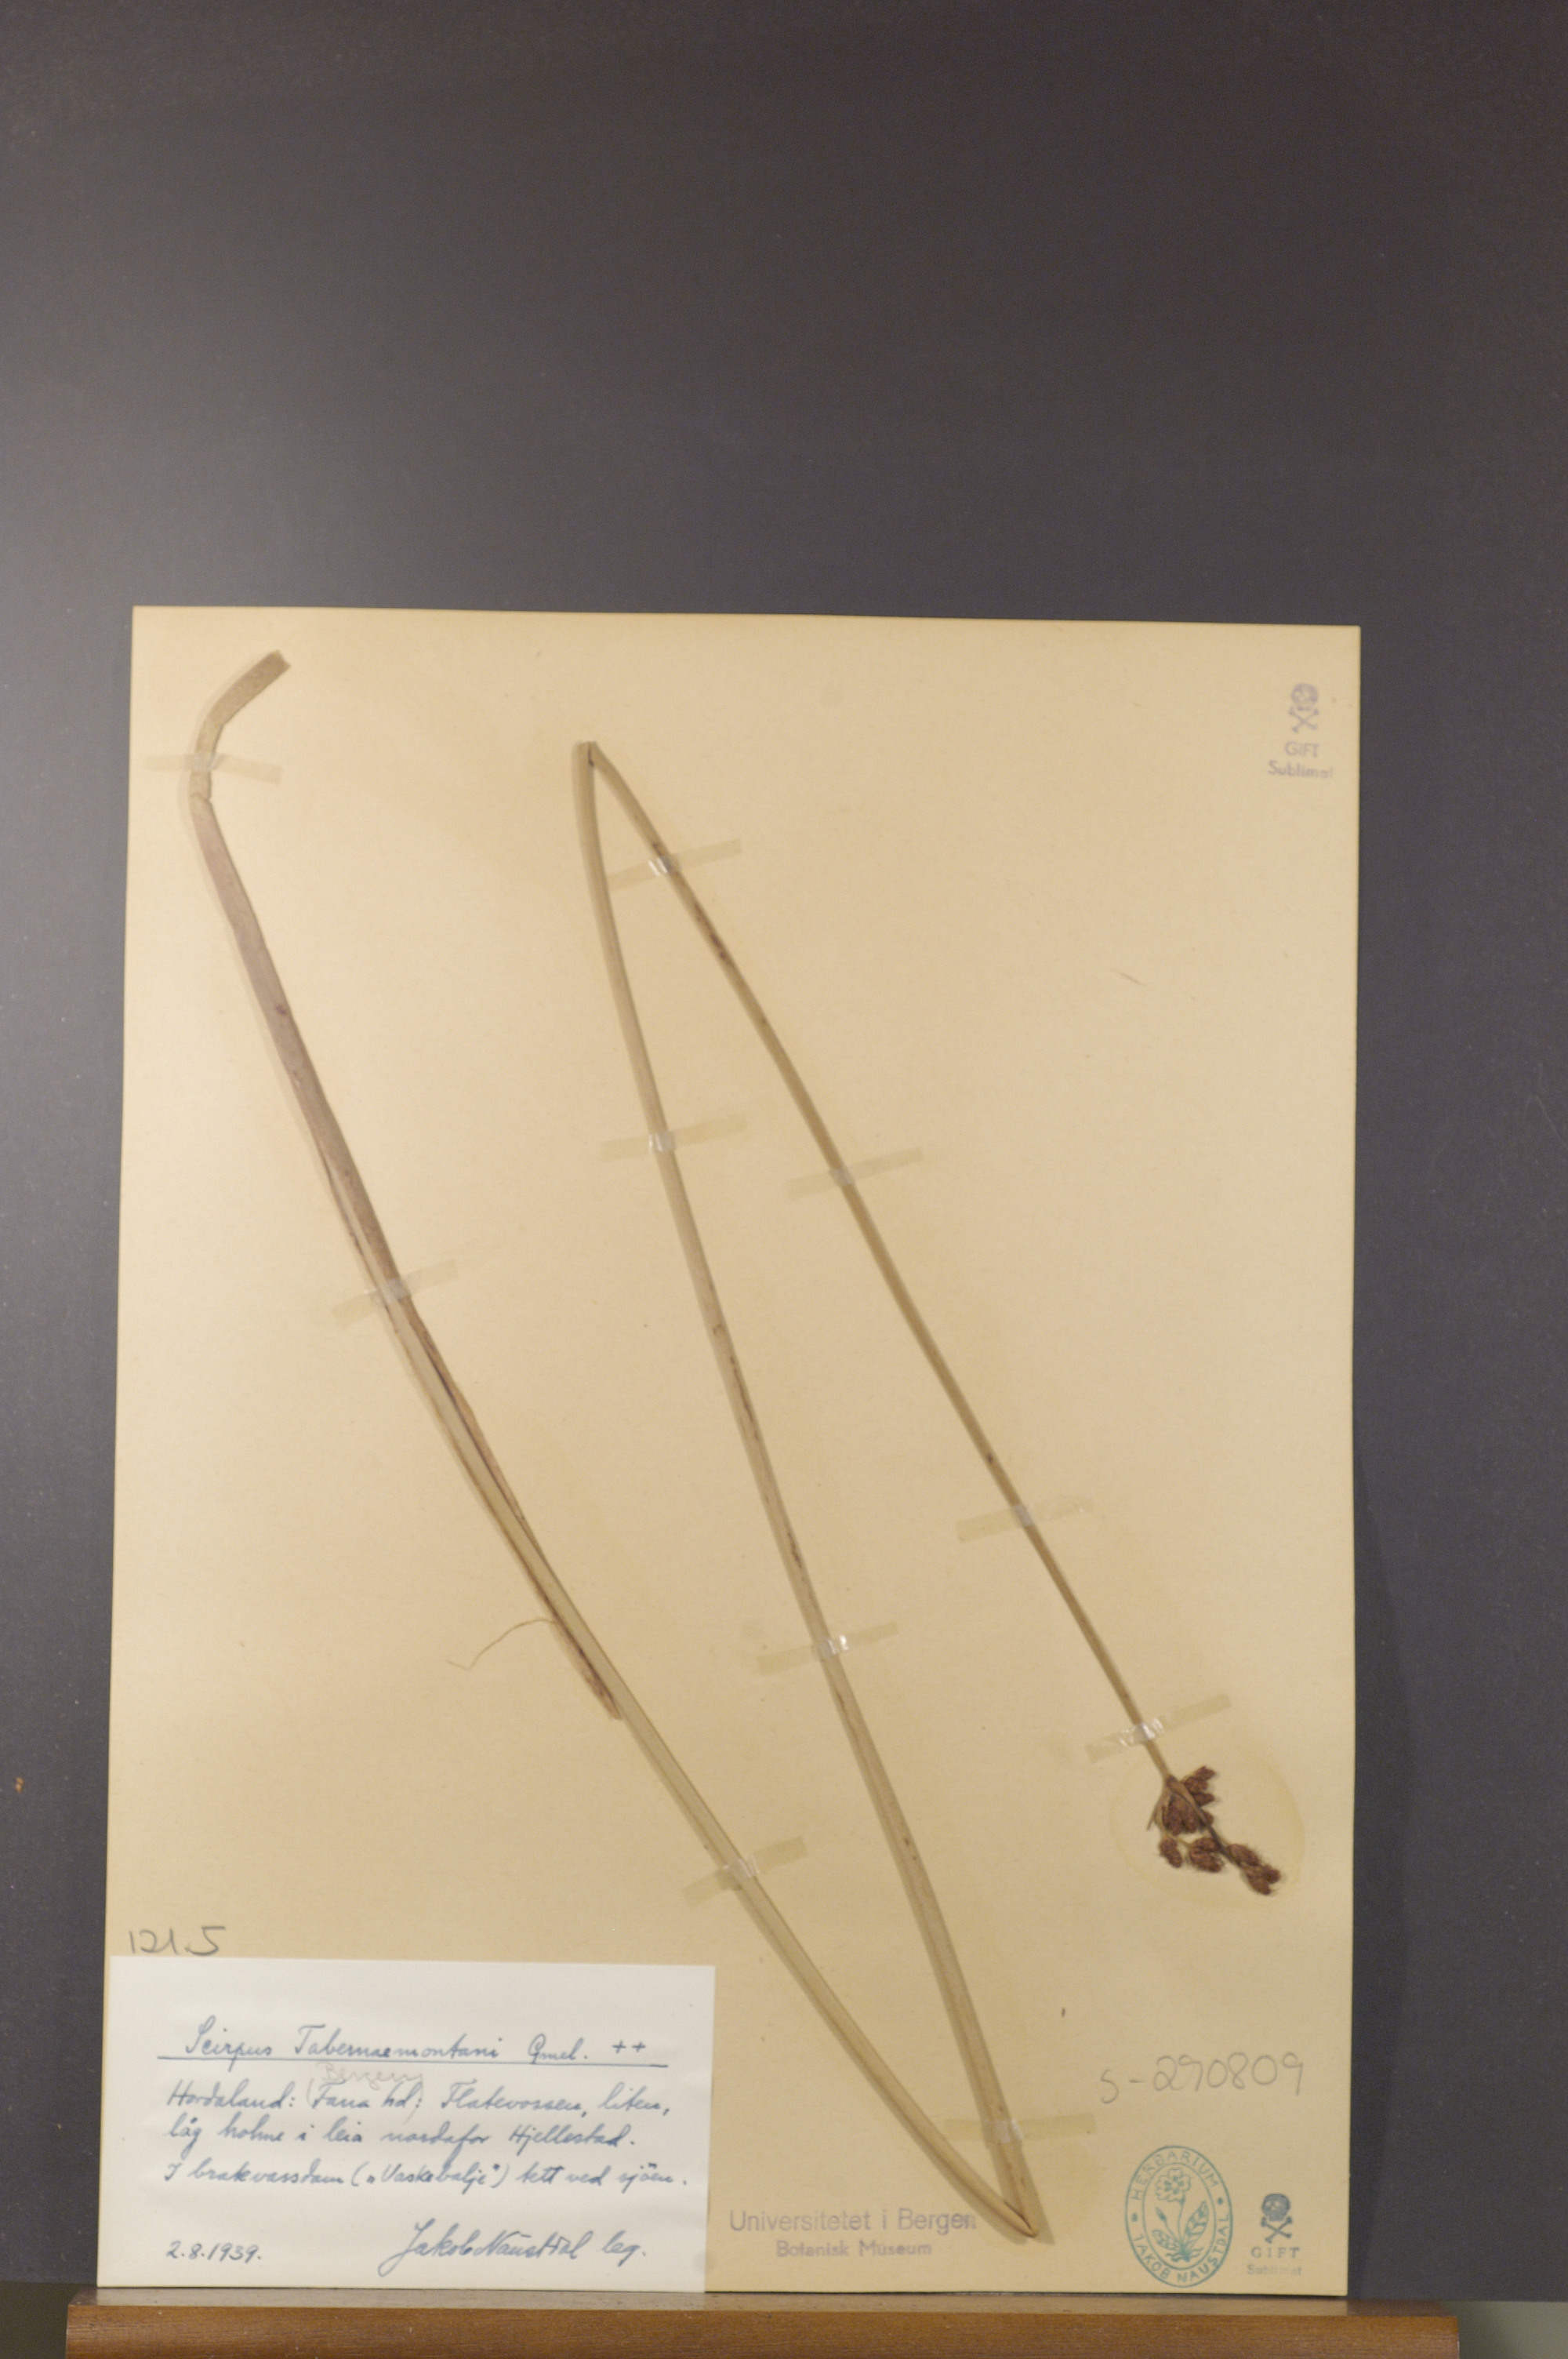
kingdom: Plantae
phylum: Tracheophyta
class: Liliopsida
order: Poales
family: Cyperaceae
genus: Schoenoplectus
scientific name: Schoenoplectus tabernaemontani
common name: Grey club-rush
